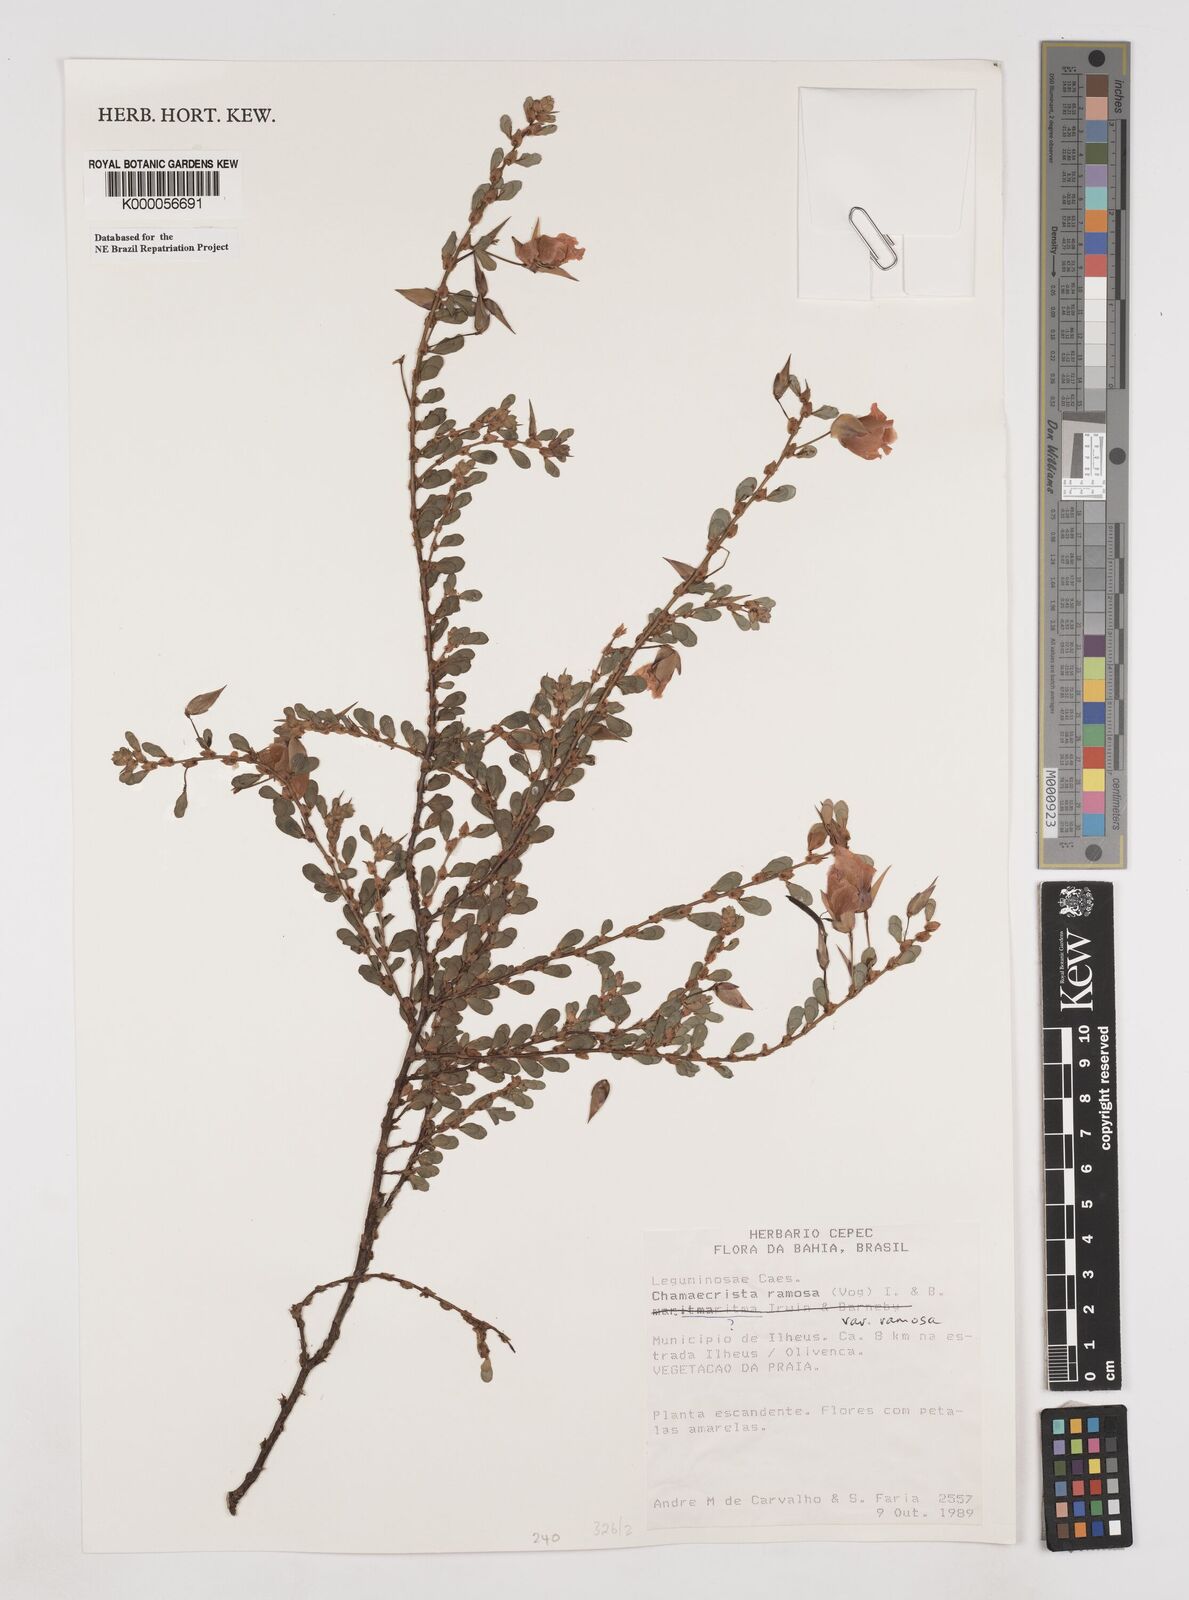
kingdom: Plantae
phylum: Tracheophyta
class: Magnoliopsida
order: Fabales
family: Fabaceae
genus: Chamaecrista
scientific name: Chamaecrista ramosa
